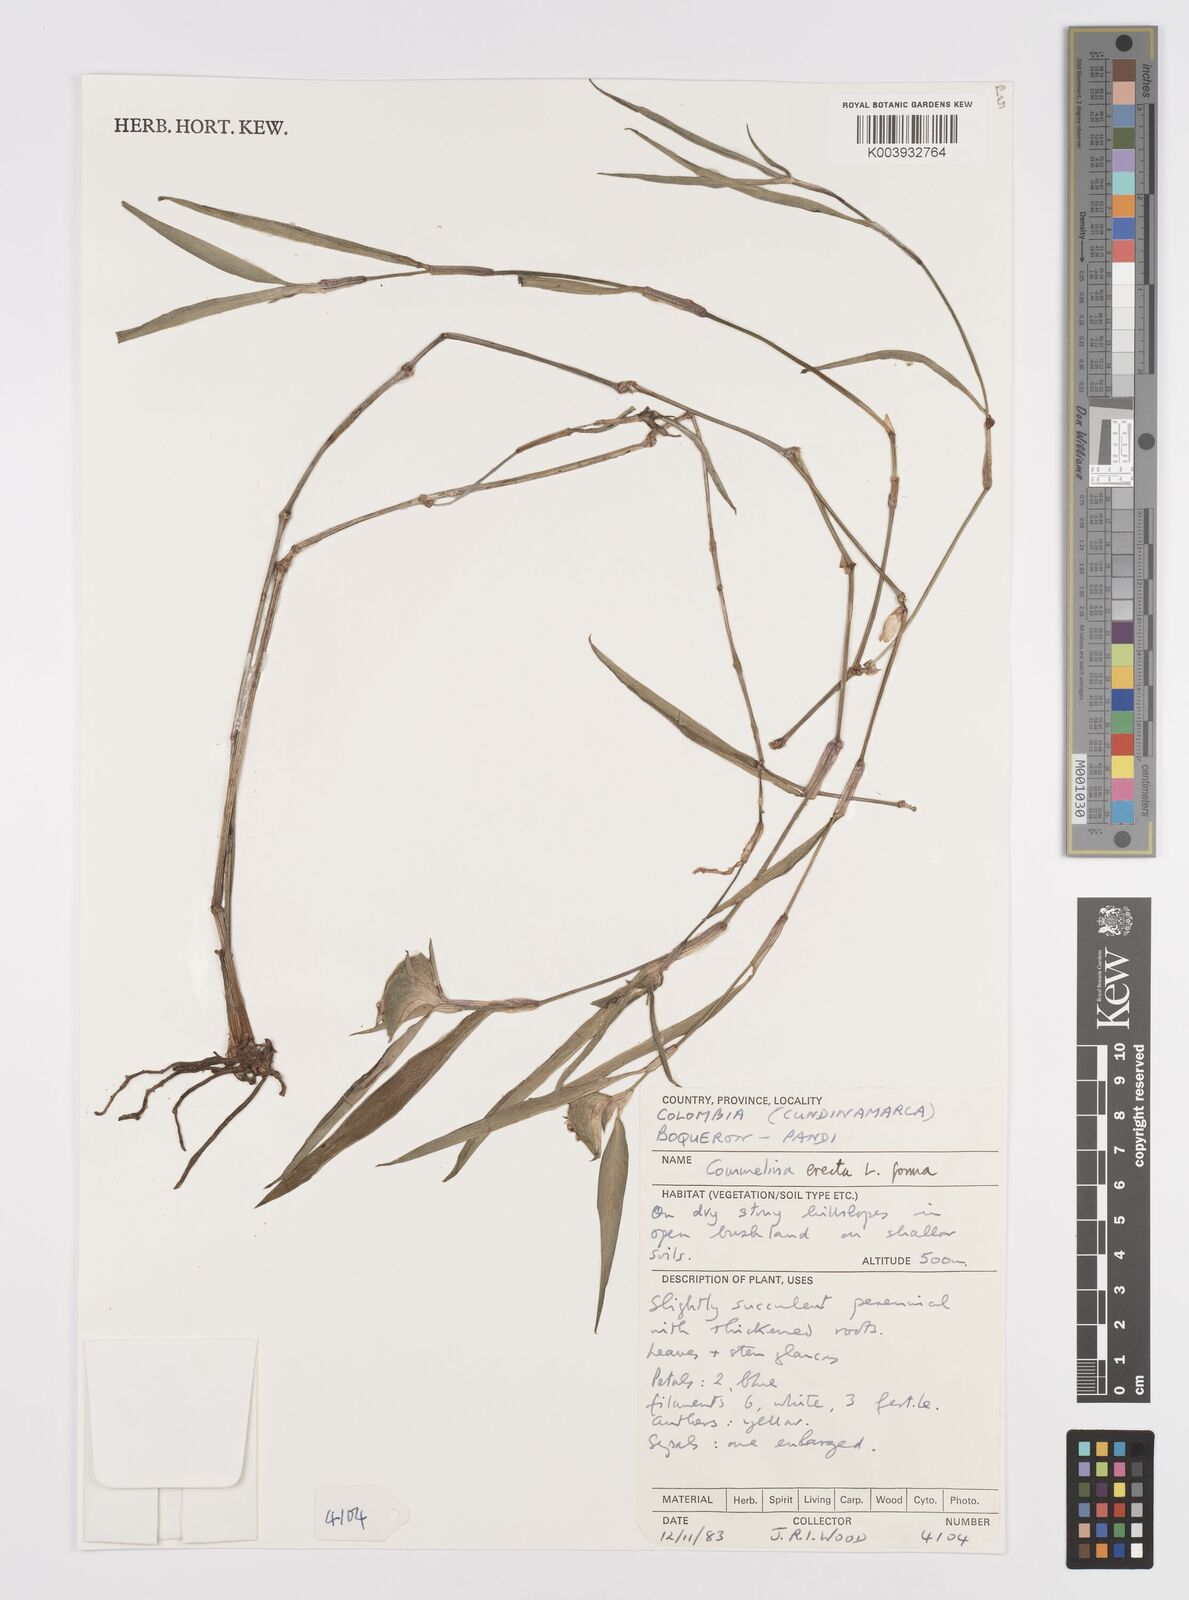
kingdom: Plantae
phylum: Tracheophyta
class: Liliopsida
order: Commelinales
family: Commelinaceae
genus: Commelina
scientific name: Commelina erecta
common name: Blousel blommetjie
